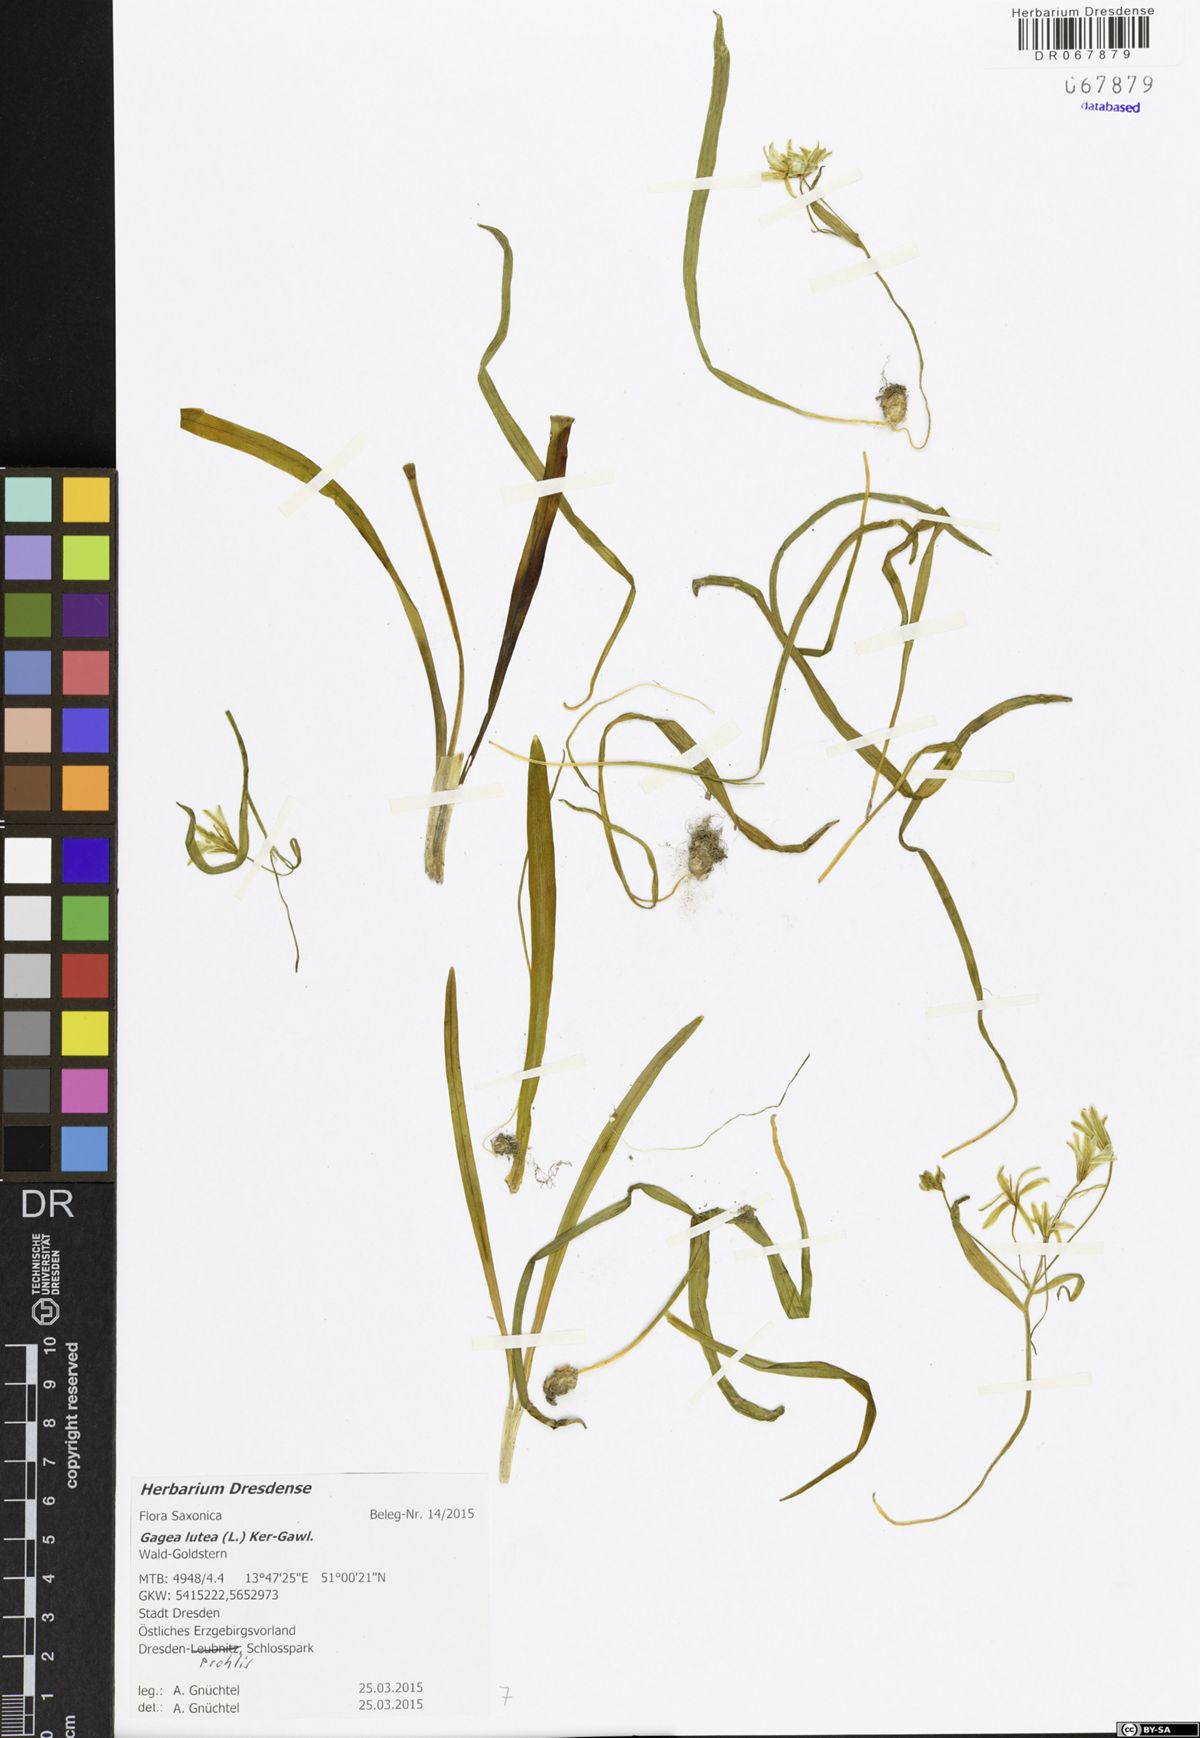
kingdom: Plantae
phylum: Tracheophyta
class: Liliopsida
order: Liliales
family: Liliaceae
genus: Gagea
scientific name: Gagea lutea
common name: Yellow star-of-bethlehem
